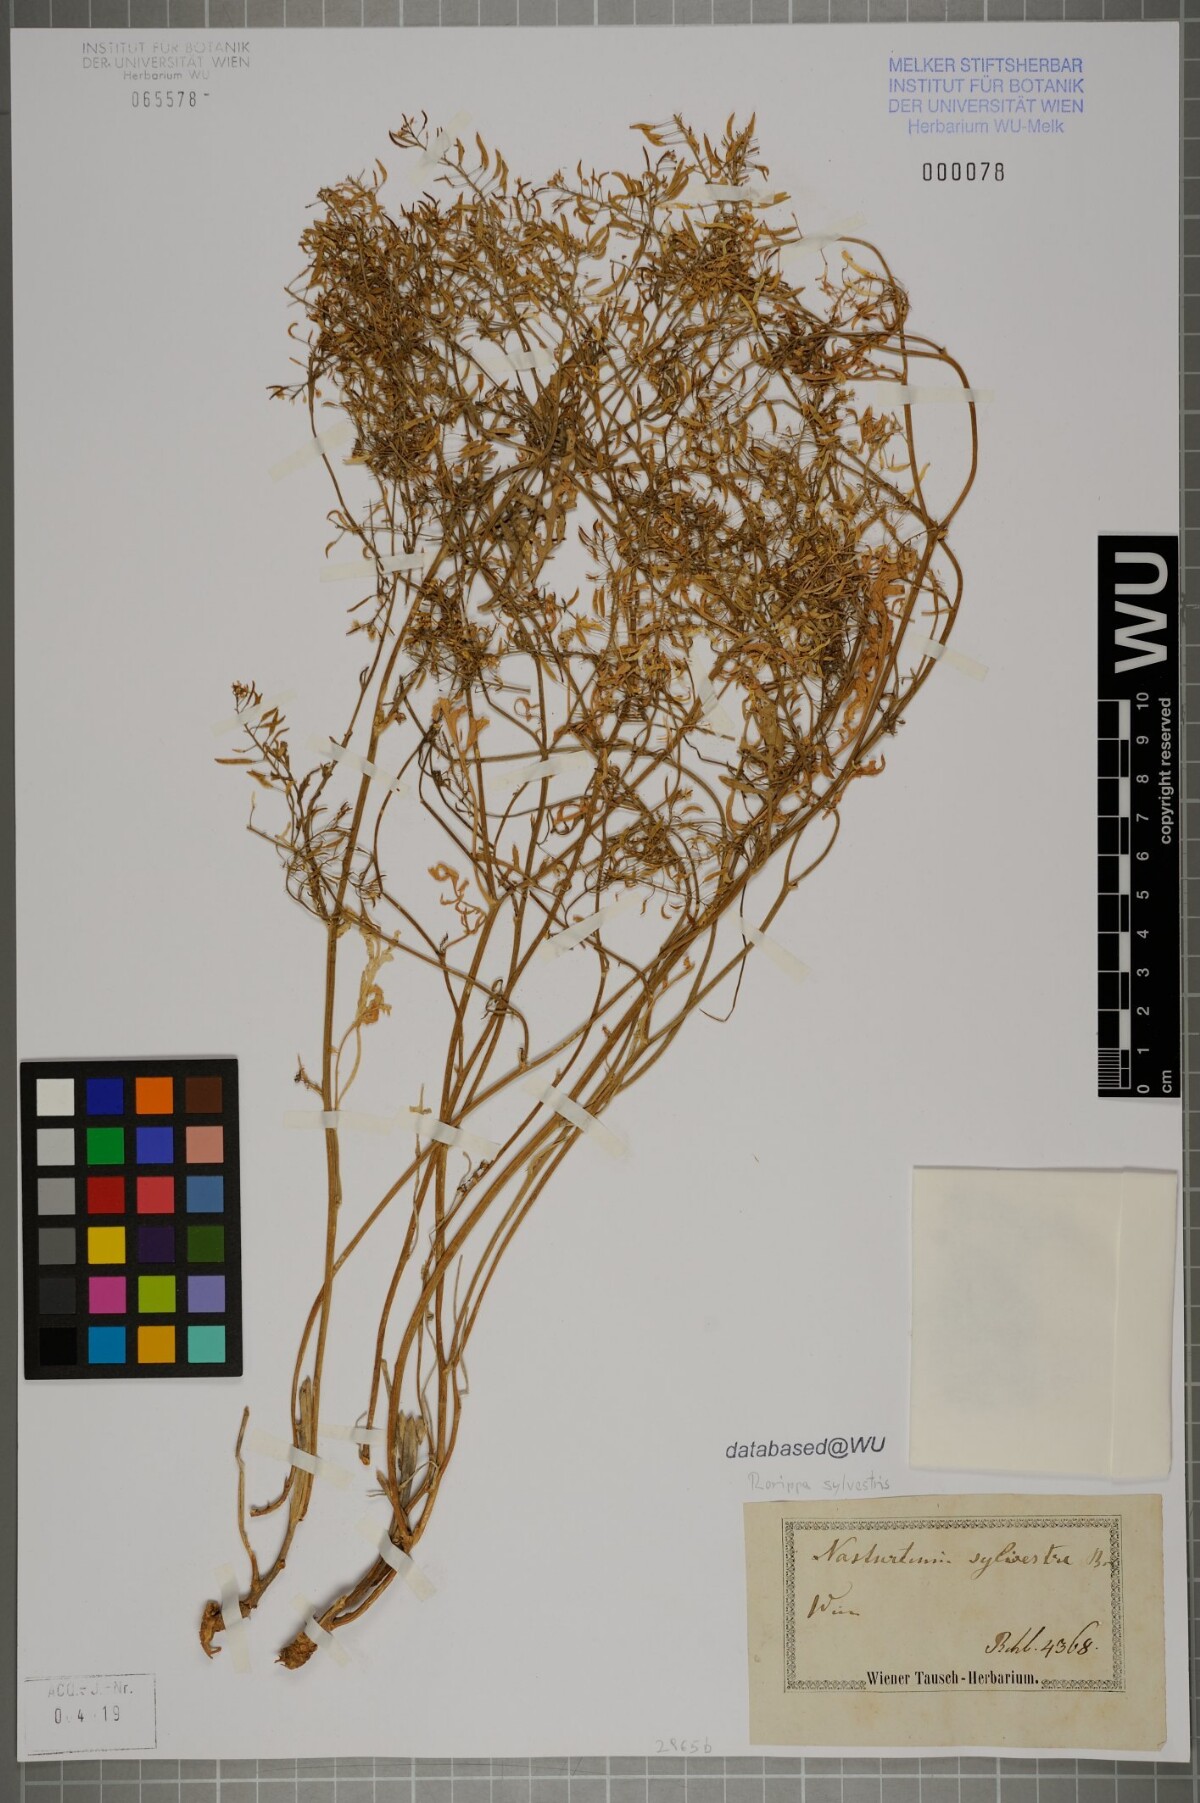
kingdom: Plantae
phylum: Tracheophyta
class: Magnoliopsida
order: Brassicales
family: Brassicaceae
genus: Rorippa
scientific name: Rorippa sylvestris
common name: Creeping yellowcress
